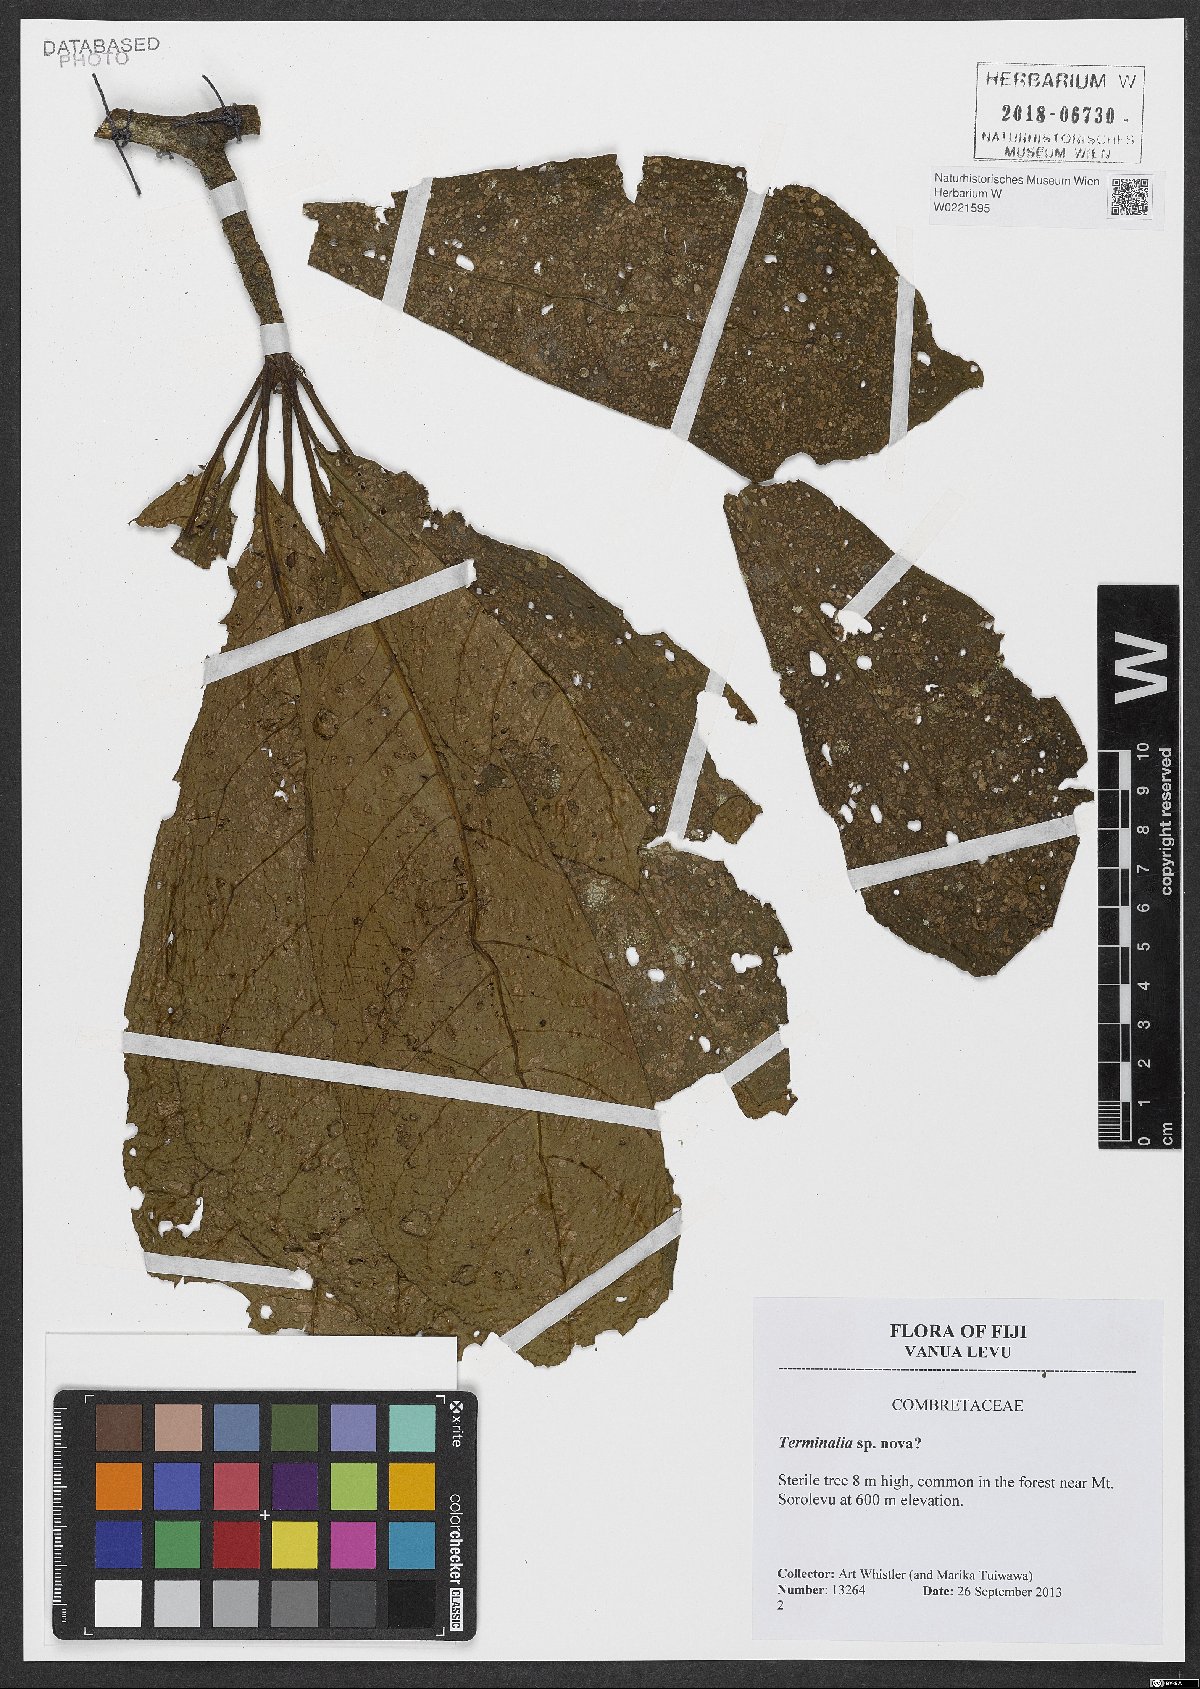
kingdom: Plantae
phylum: Tracheophyta
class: Magnoliopsida
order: Myrtales
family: Combretaceae
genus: Terminalia
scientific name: Terminalia
